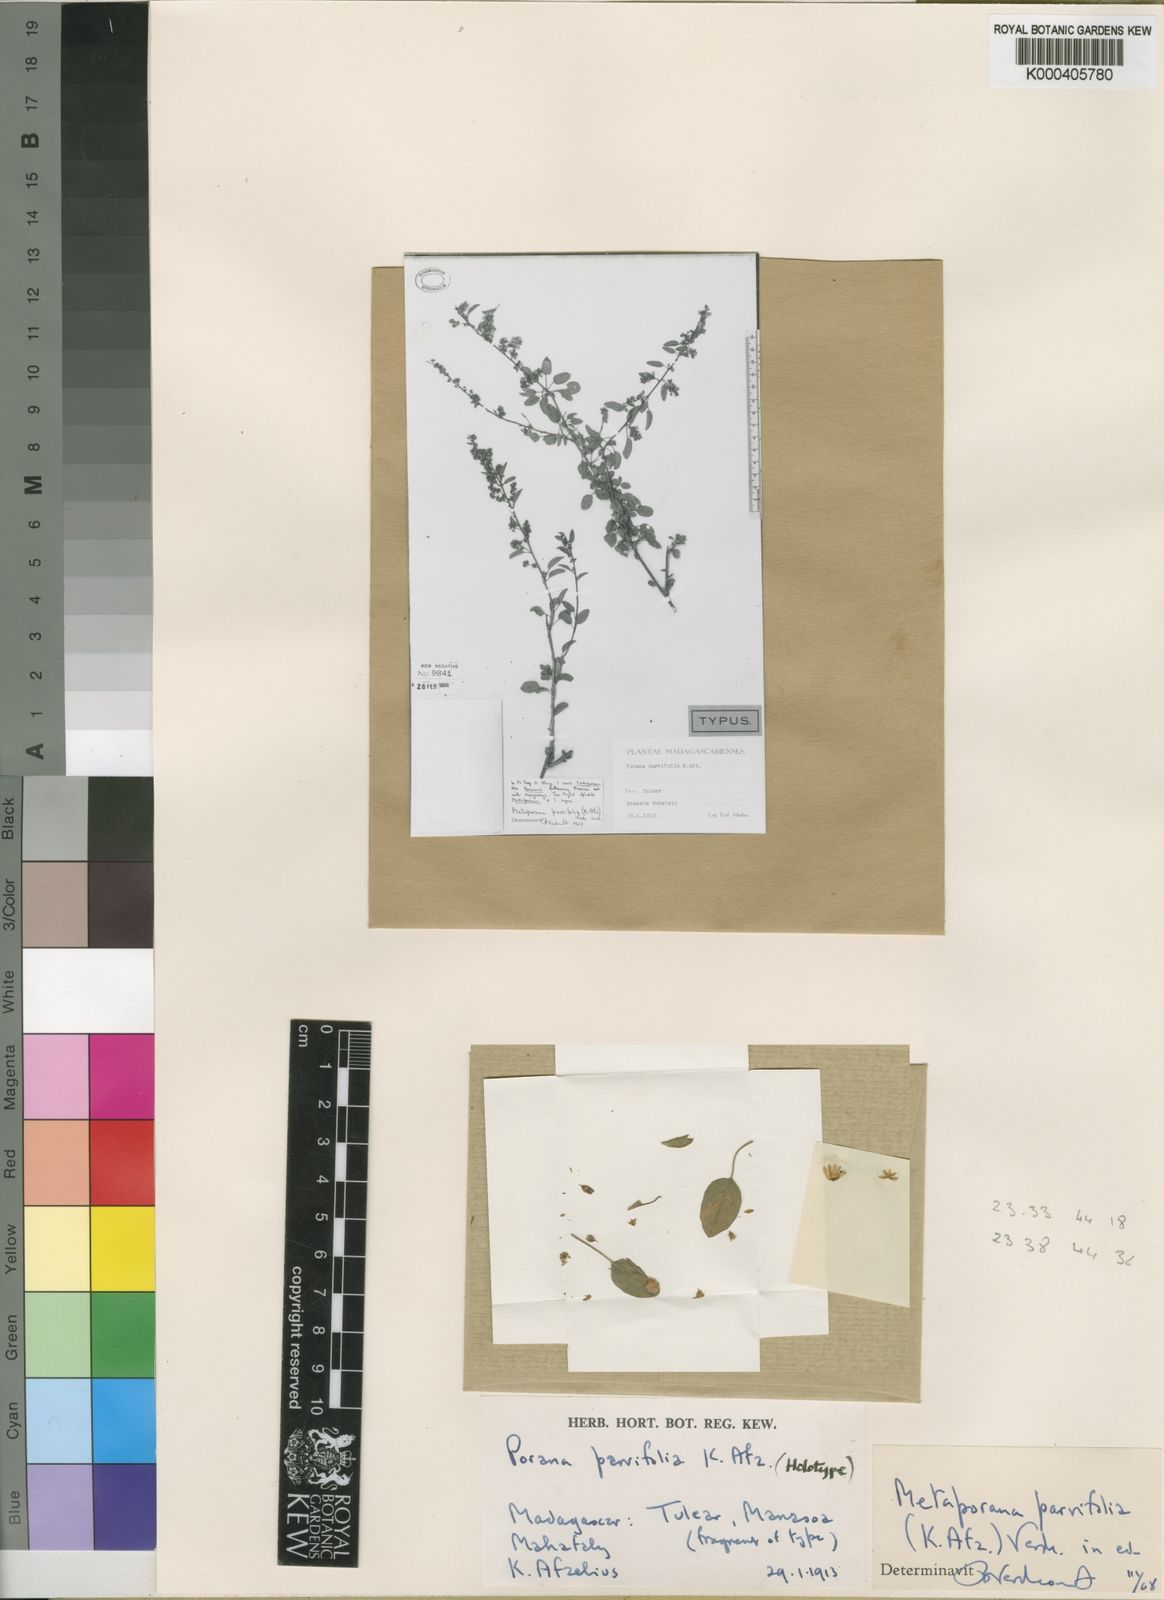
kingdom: Plantae
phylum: Tracheophyta
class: Magnoliopsida
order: Solanales
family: Convolvulaceae
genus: Metaporana
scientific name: Metaporana parvifolia
